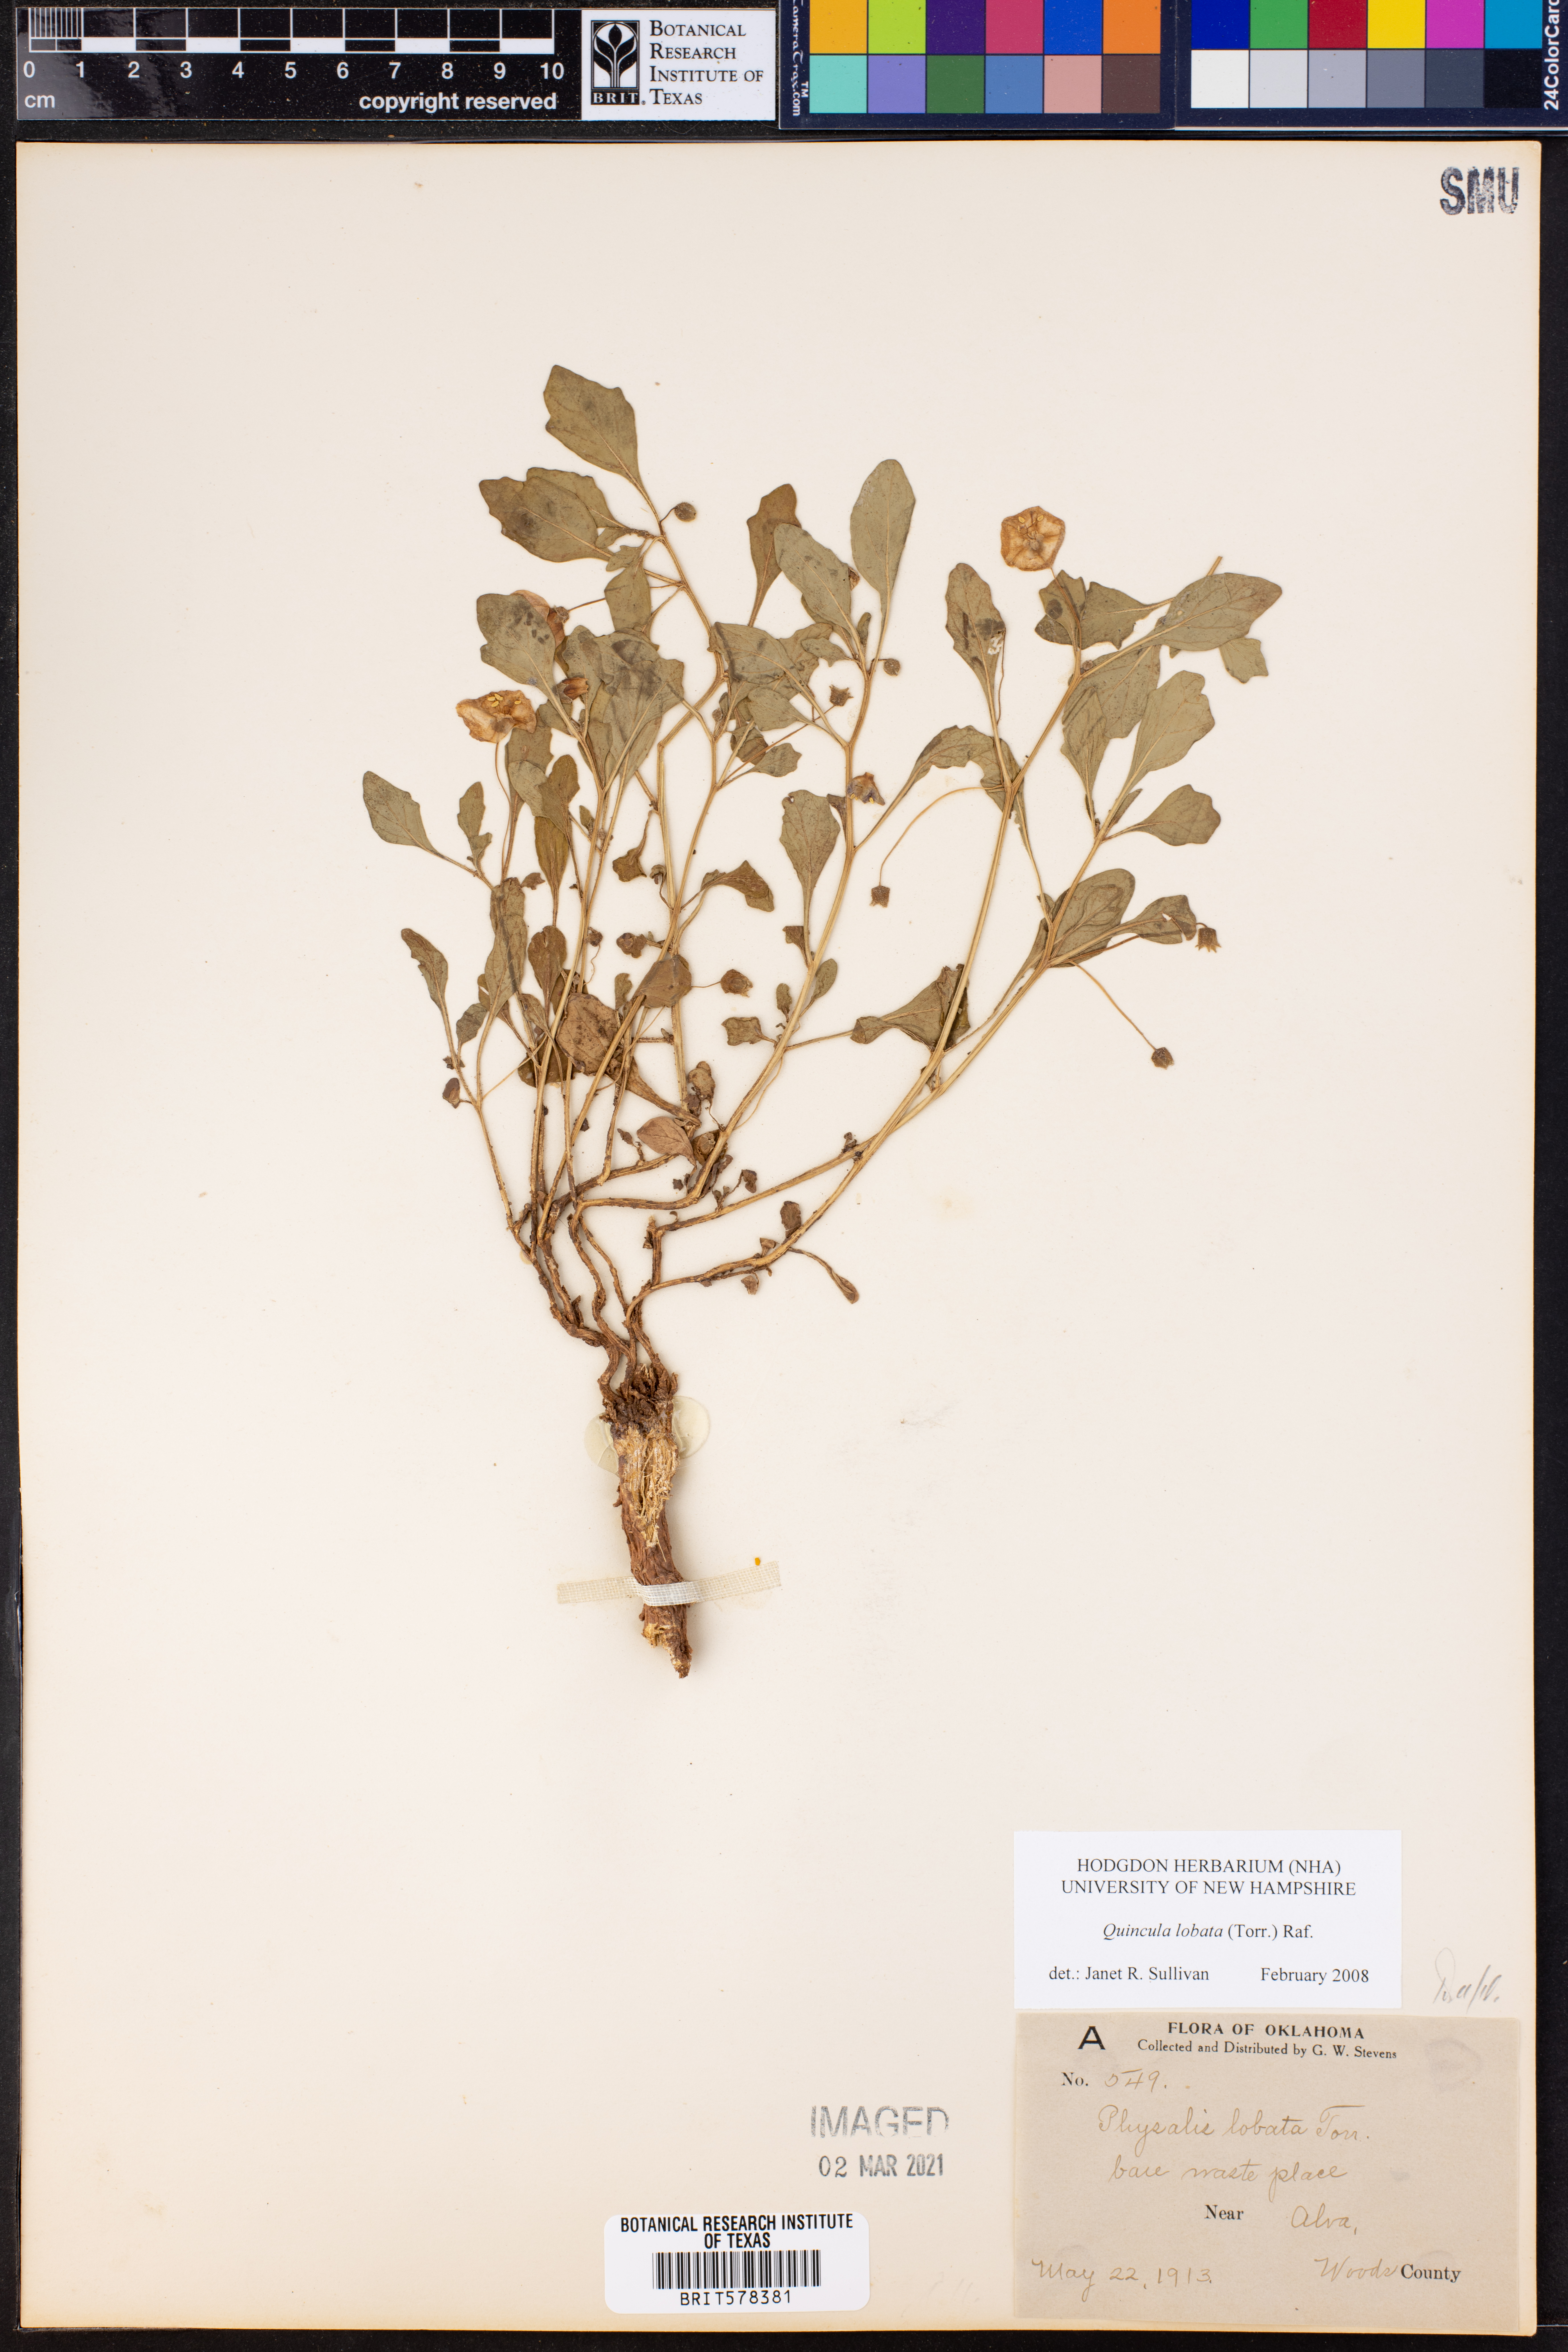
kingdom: Plantae
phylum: Tracheophyta
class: Magnoliopsida
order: Solanales
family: Solanaceae
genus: Quincula
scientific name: Quincula lobata
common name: Purple-ground-cherry
